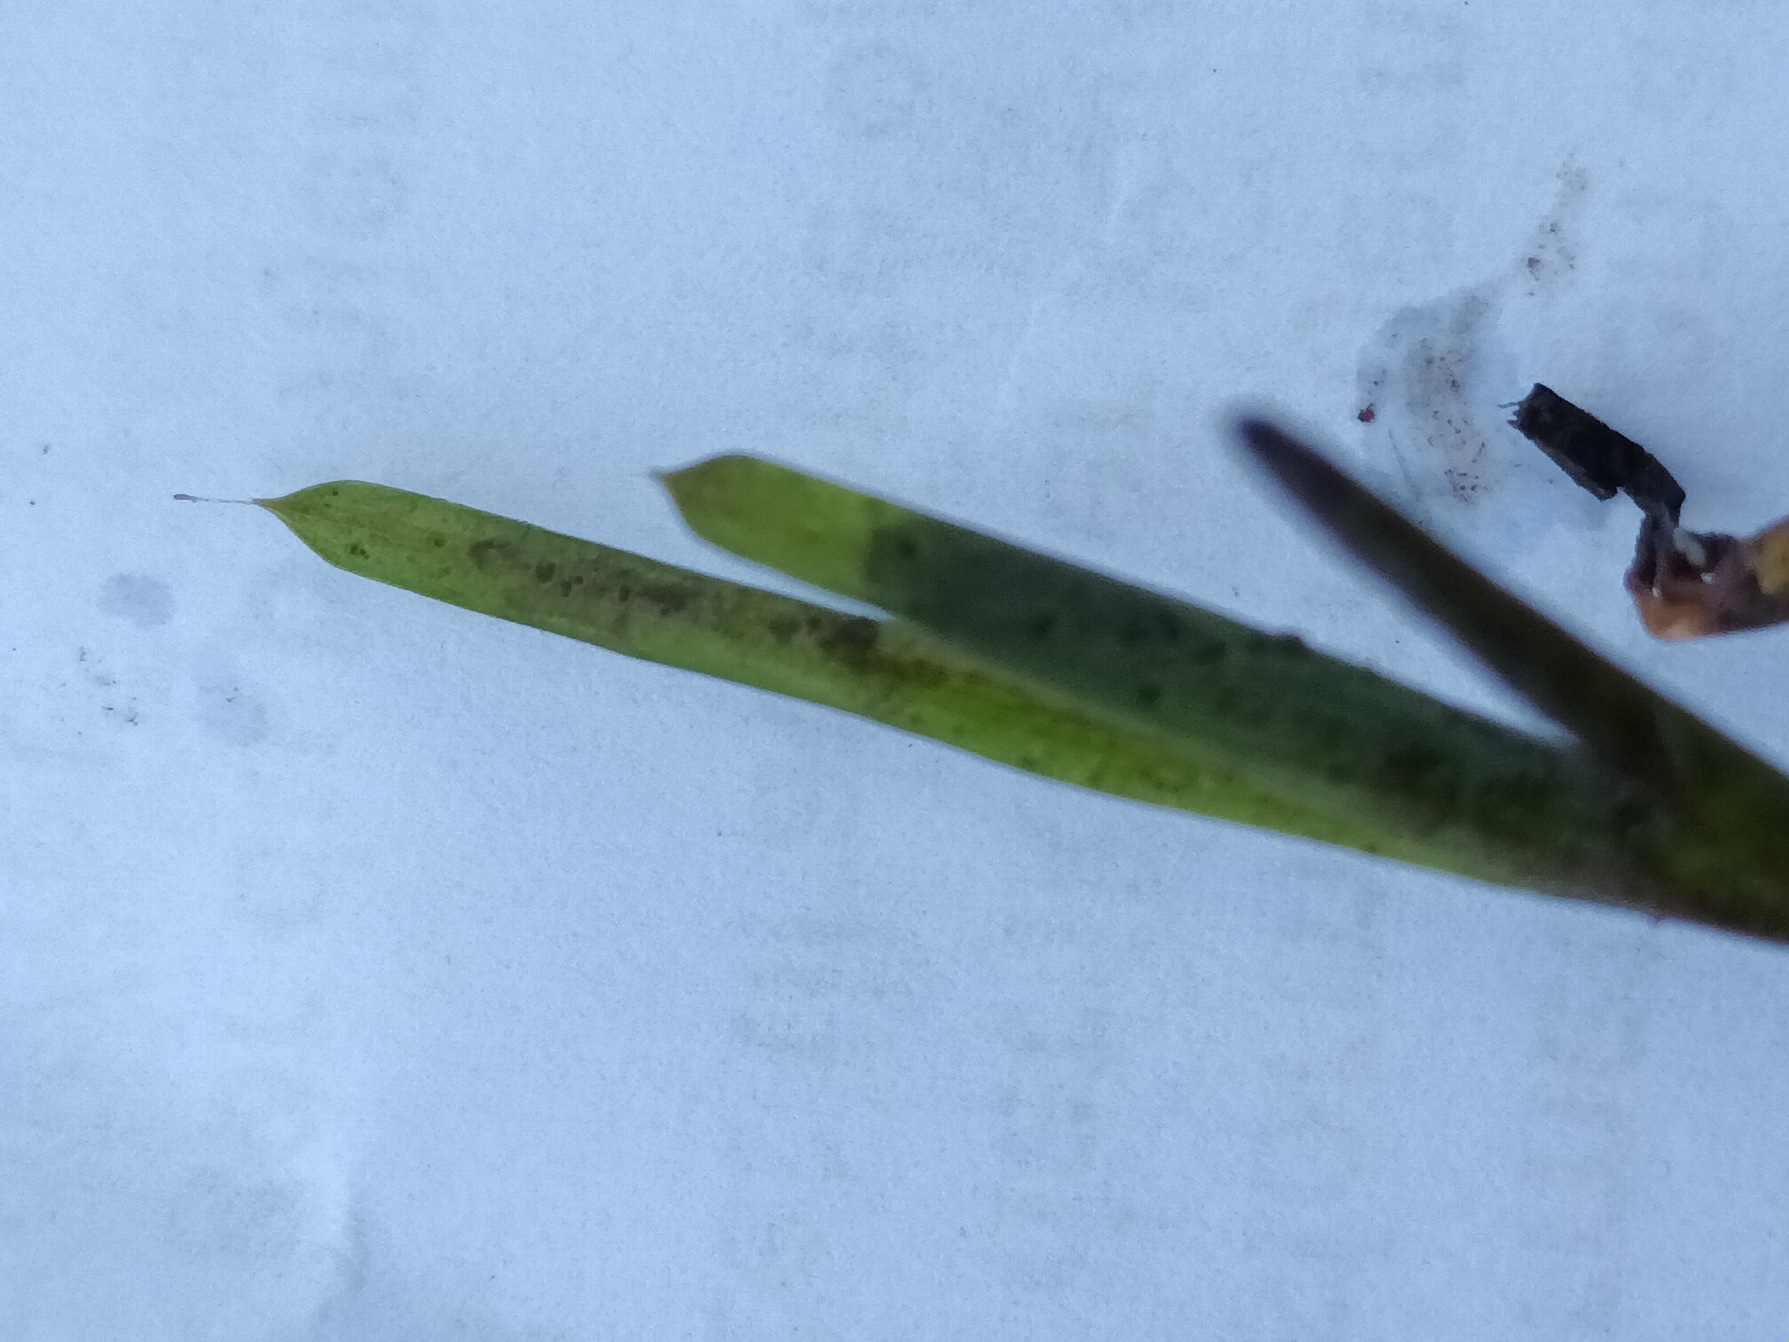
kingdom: Plantae
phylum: Tracheophyta
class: Liliopsida
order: Alismatales
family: Potamogetonaceae
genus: Potamogeton
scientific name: Potamogeton acutifolius
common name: Spidsbladet vandaks
